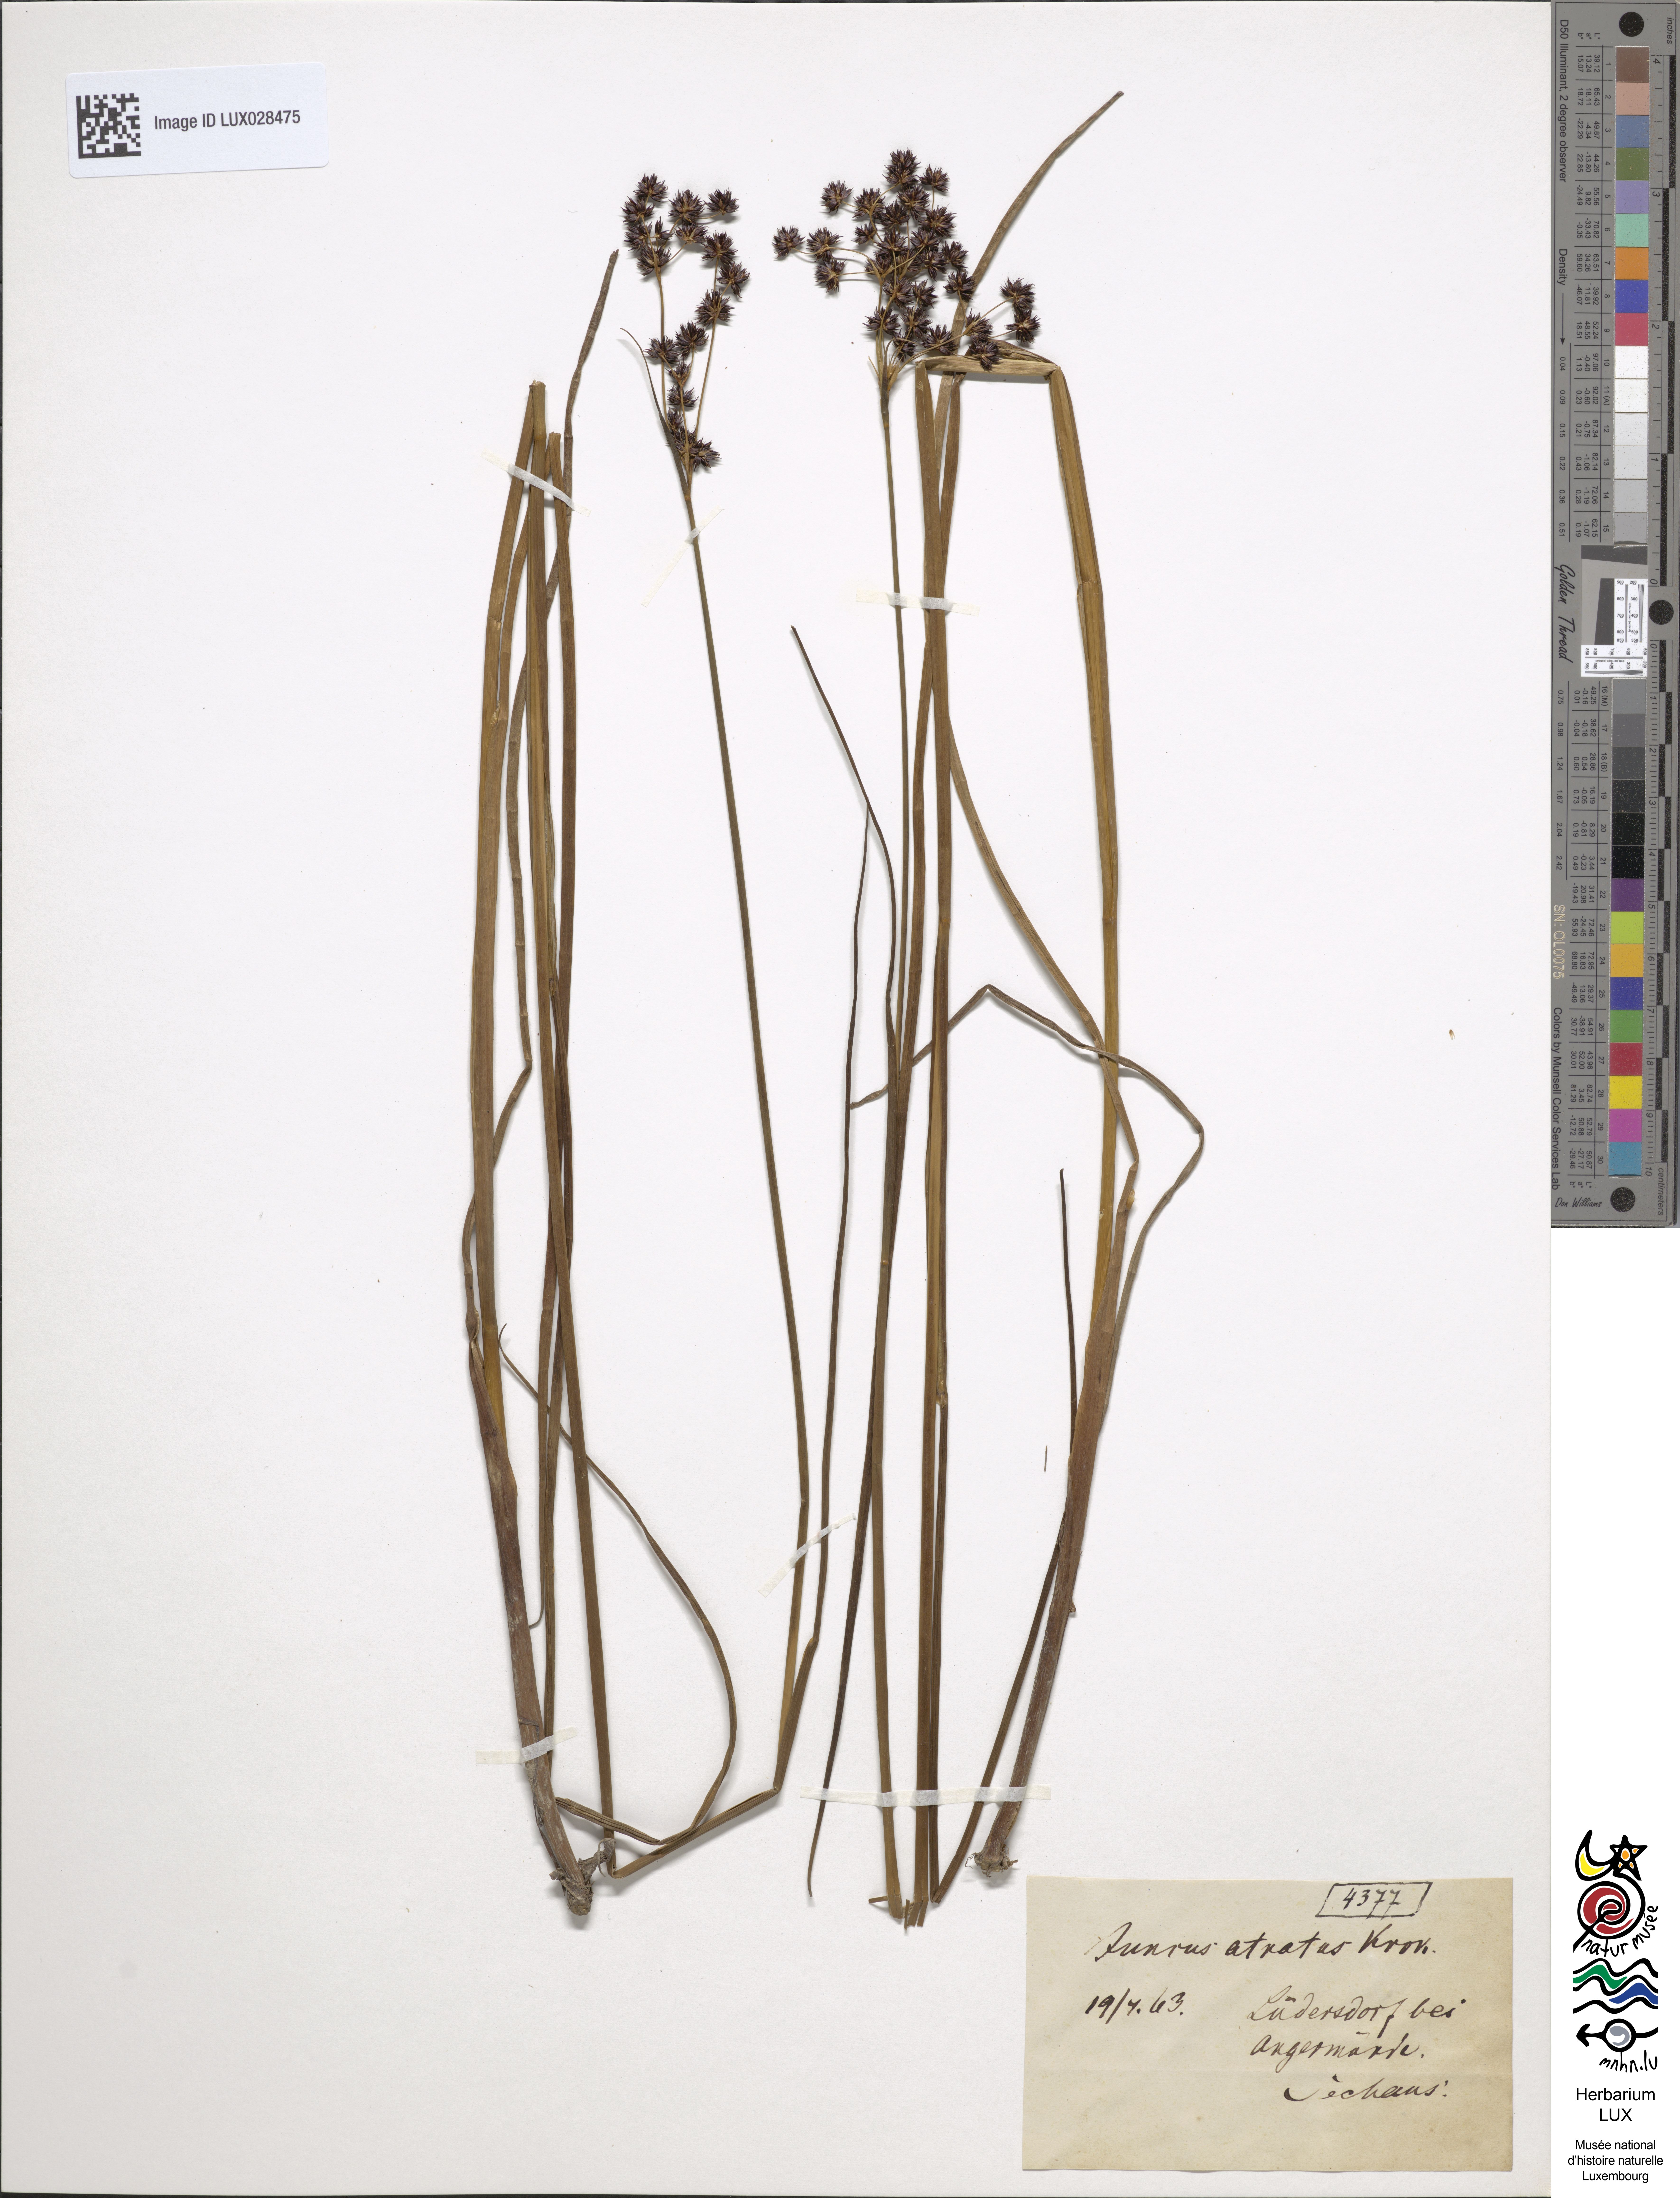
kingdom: Plantae
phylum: Tracheophyta
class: Liliopsida
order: Poales
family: Juncaceae
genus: Juncus
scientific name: Juncus atratus
